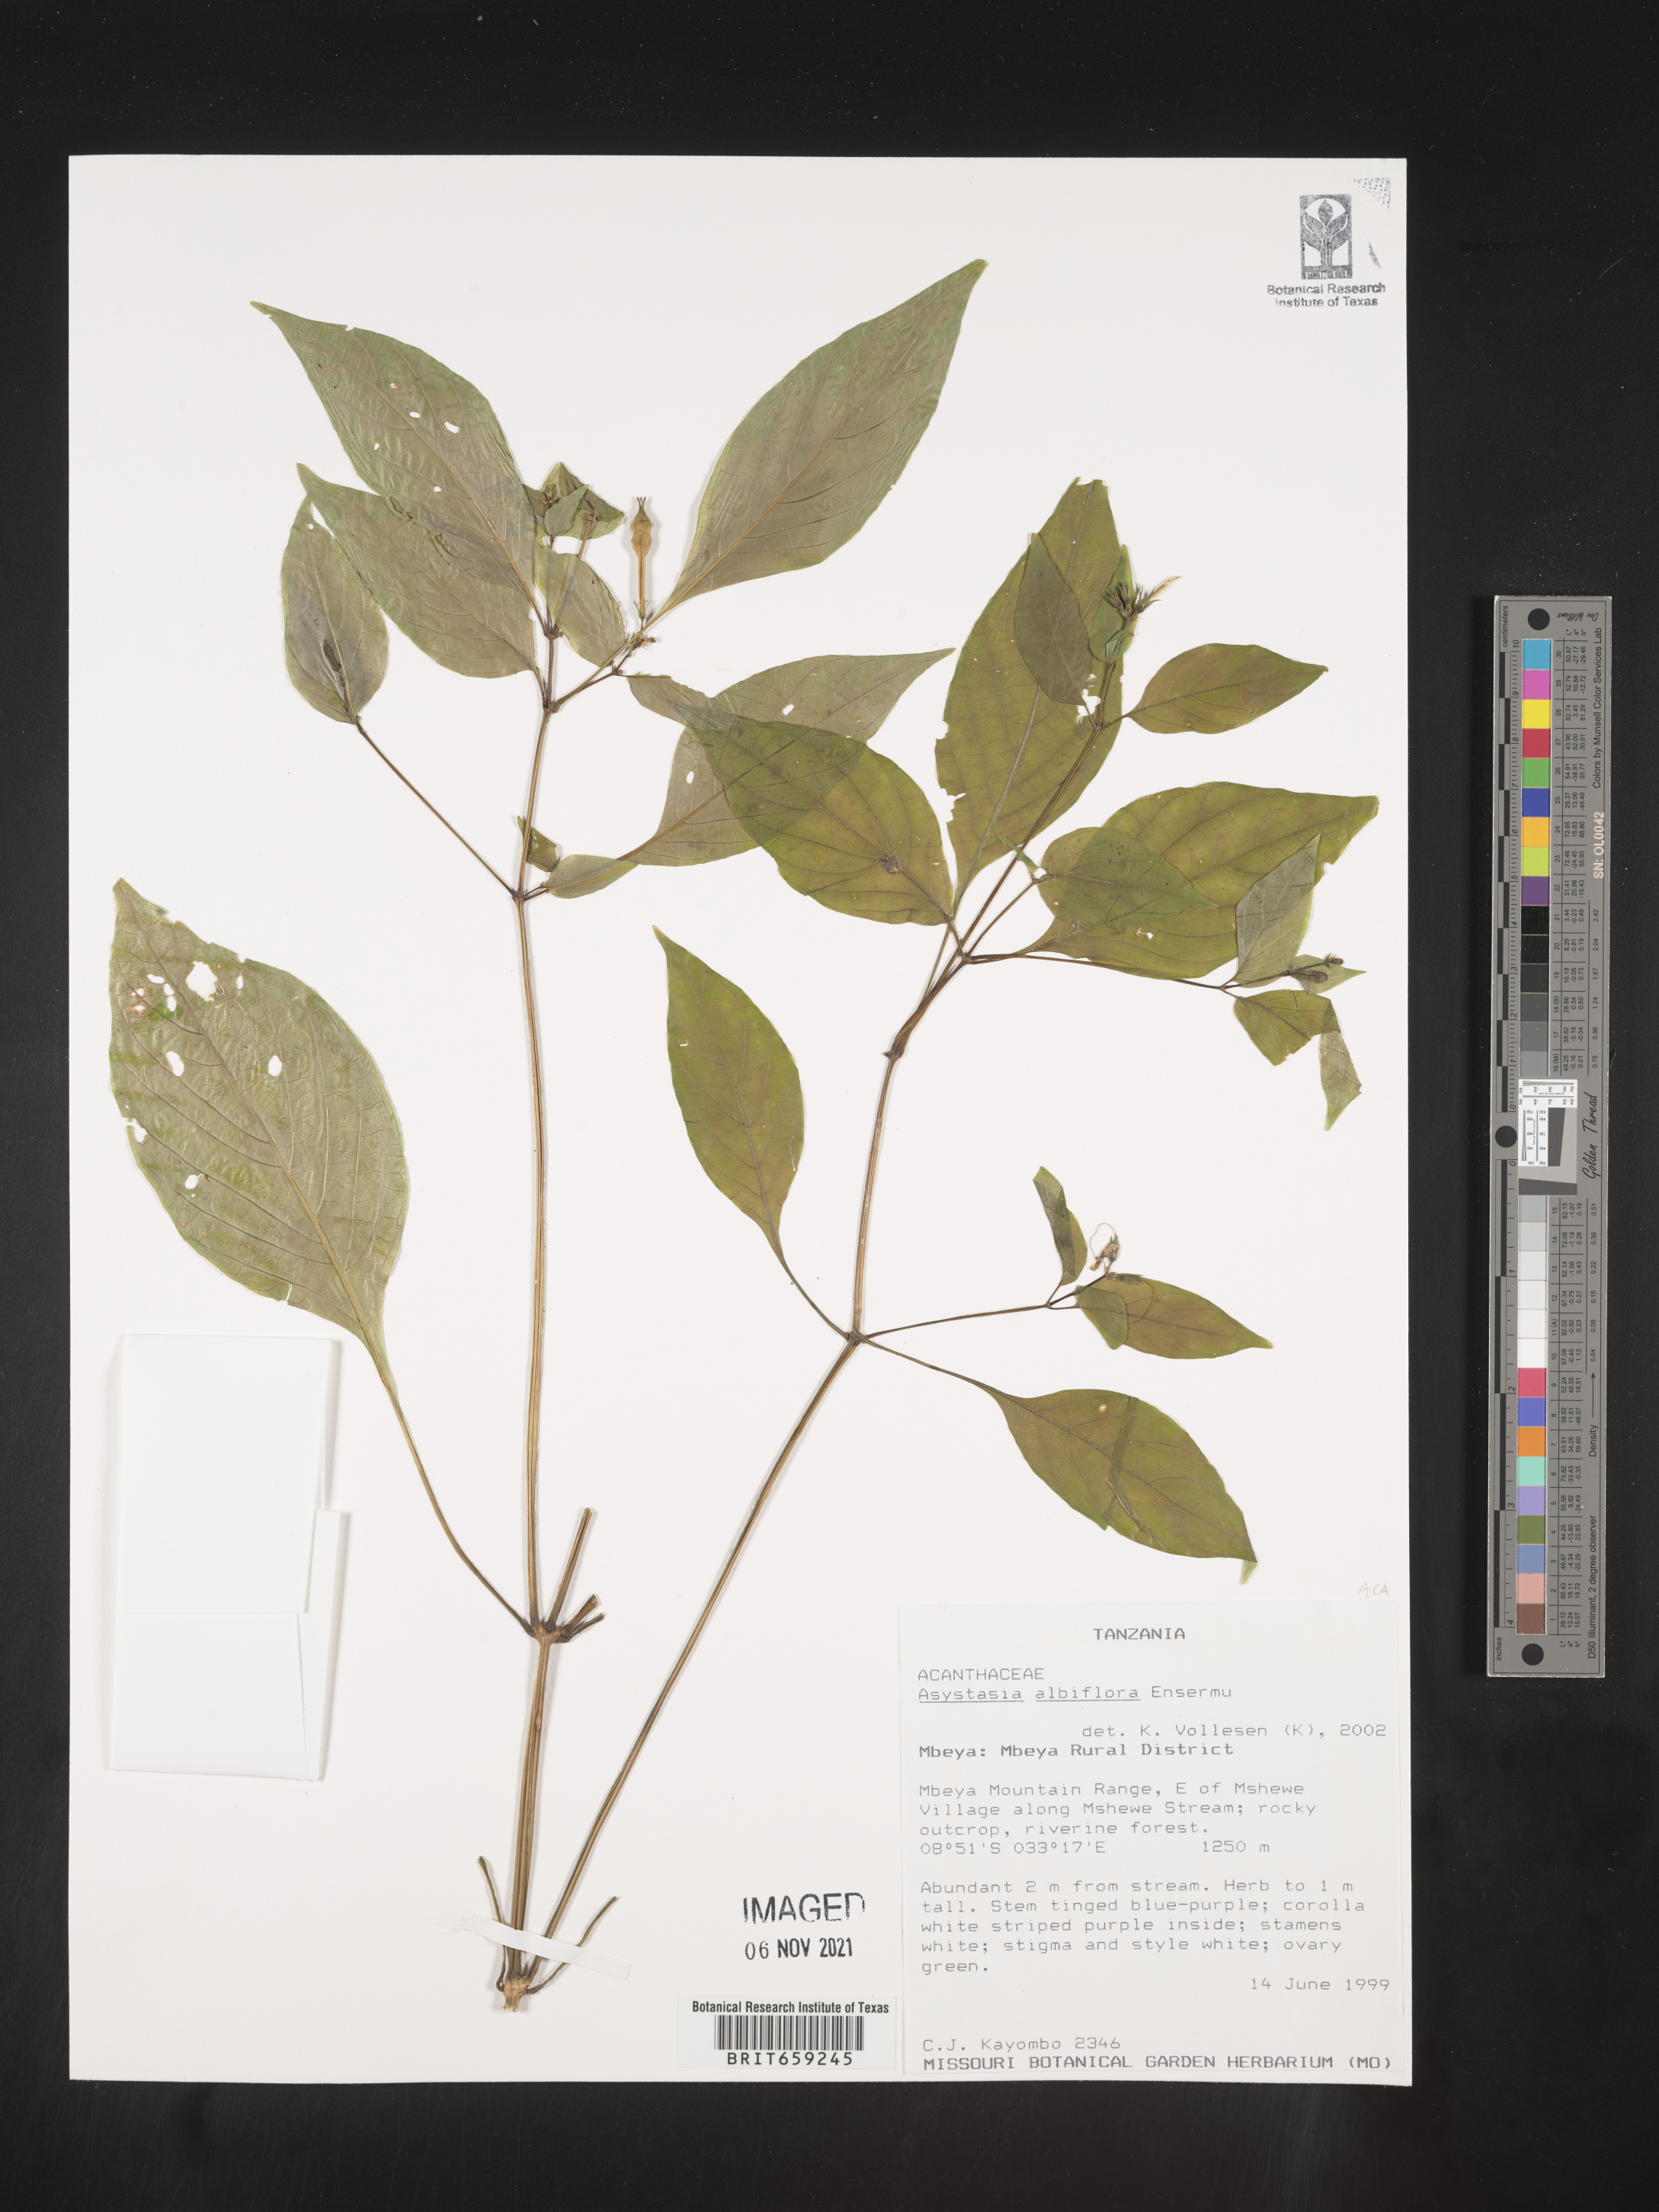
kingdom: Plantae
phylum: Tracheophyta
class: Magnoliopsida
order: Lamiales
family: Acanthaceae
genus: Asystasia
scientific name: Asystasia albiflora
